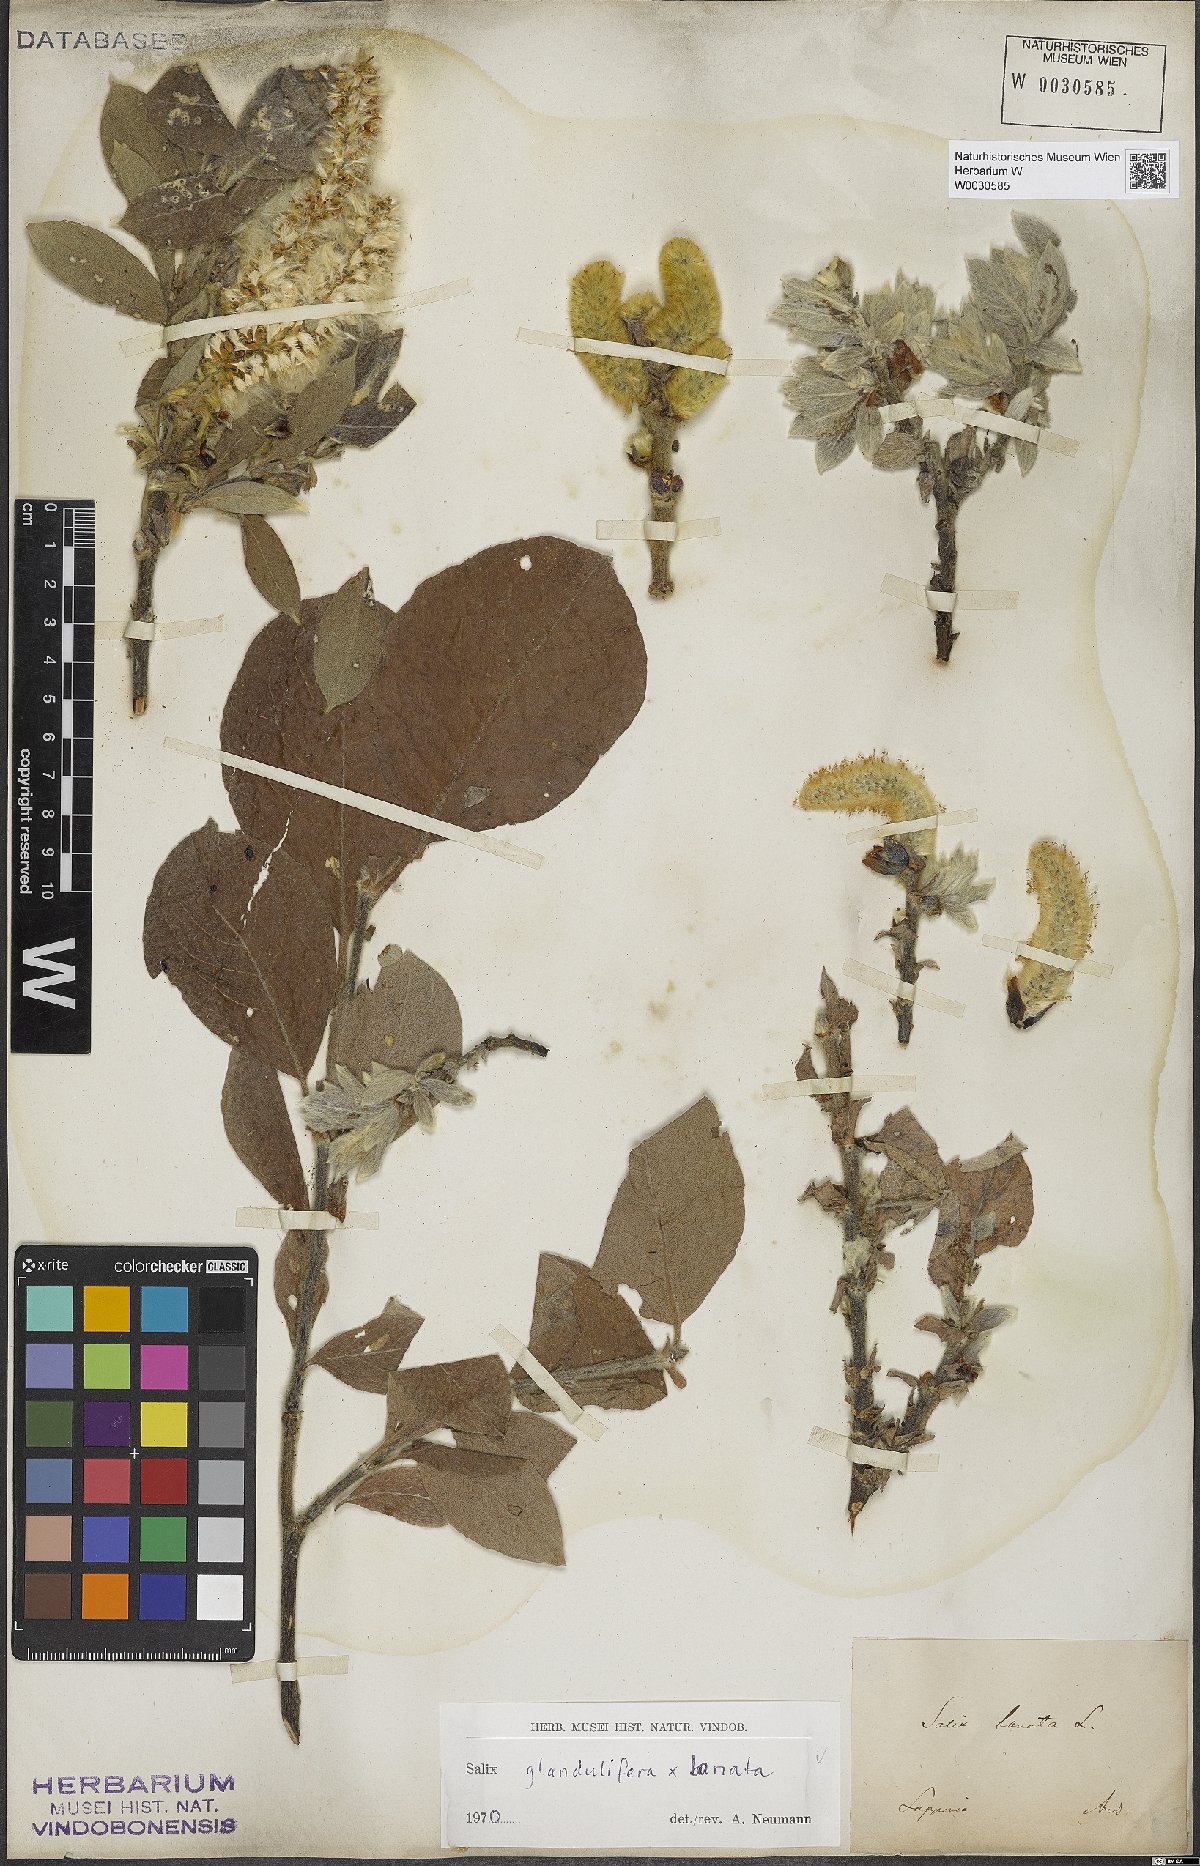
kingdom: Plantae
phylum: Tracheophyta
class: Magnoliopsida
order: Malpighiales
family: Salicaceae
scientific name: Salicaceae
